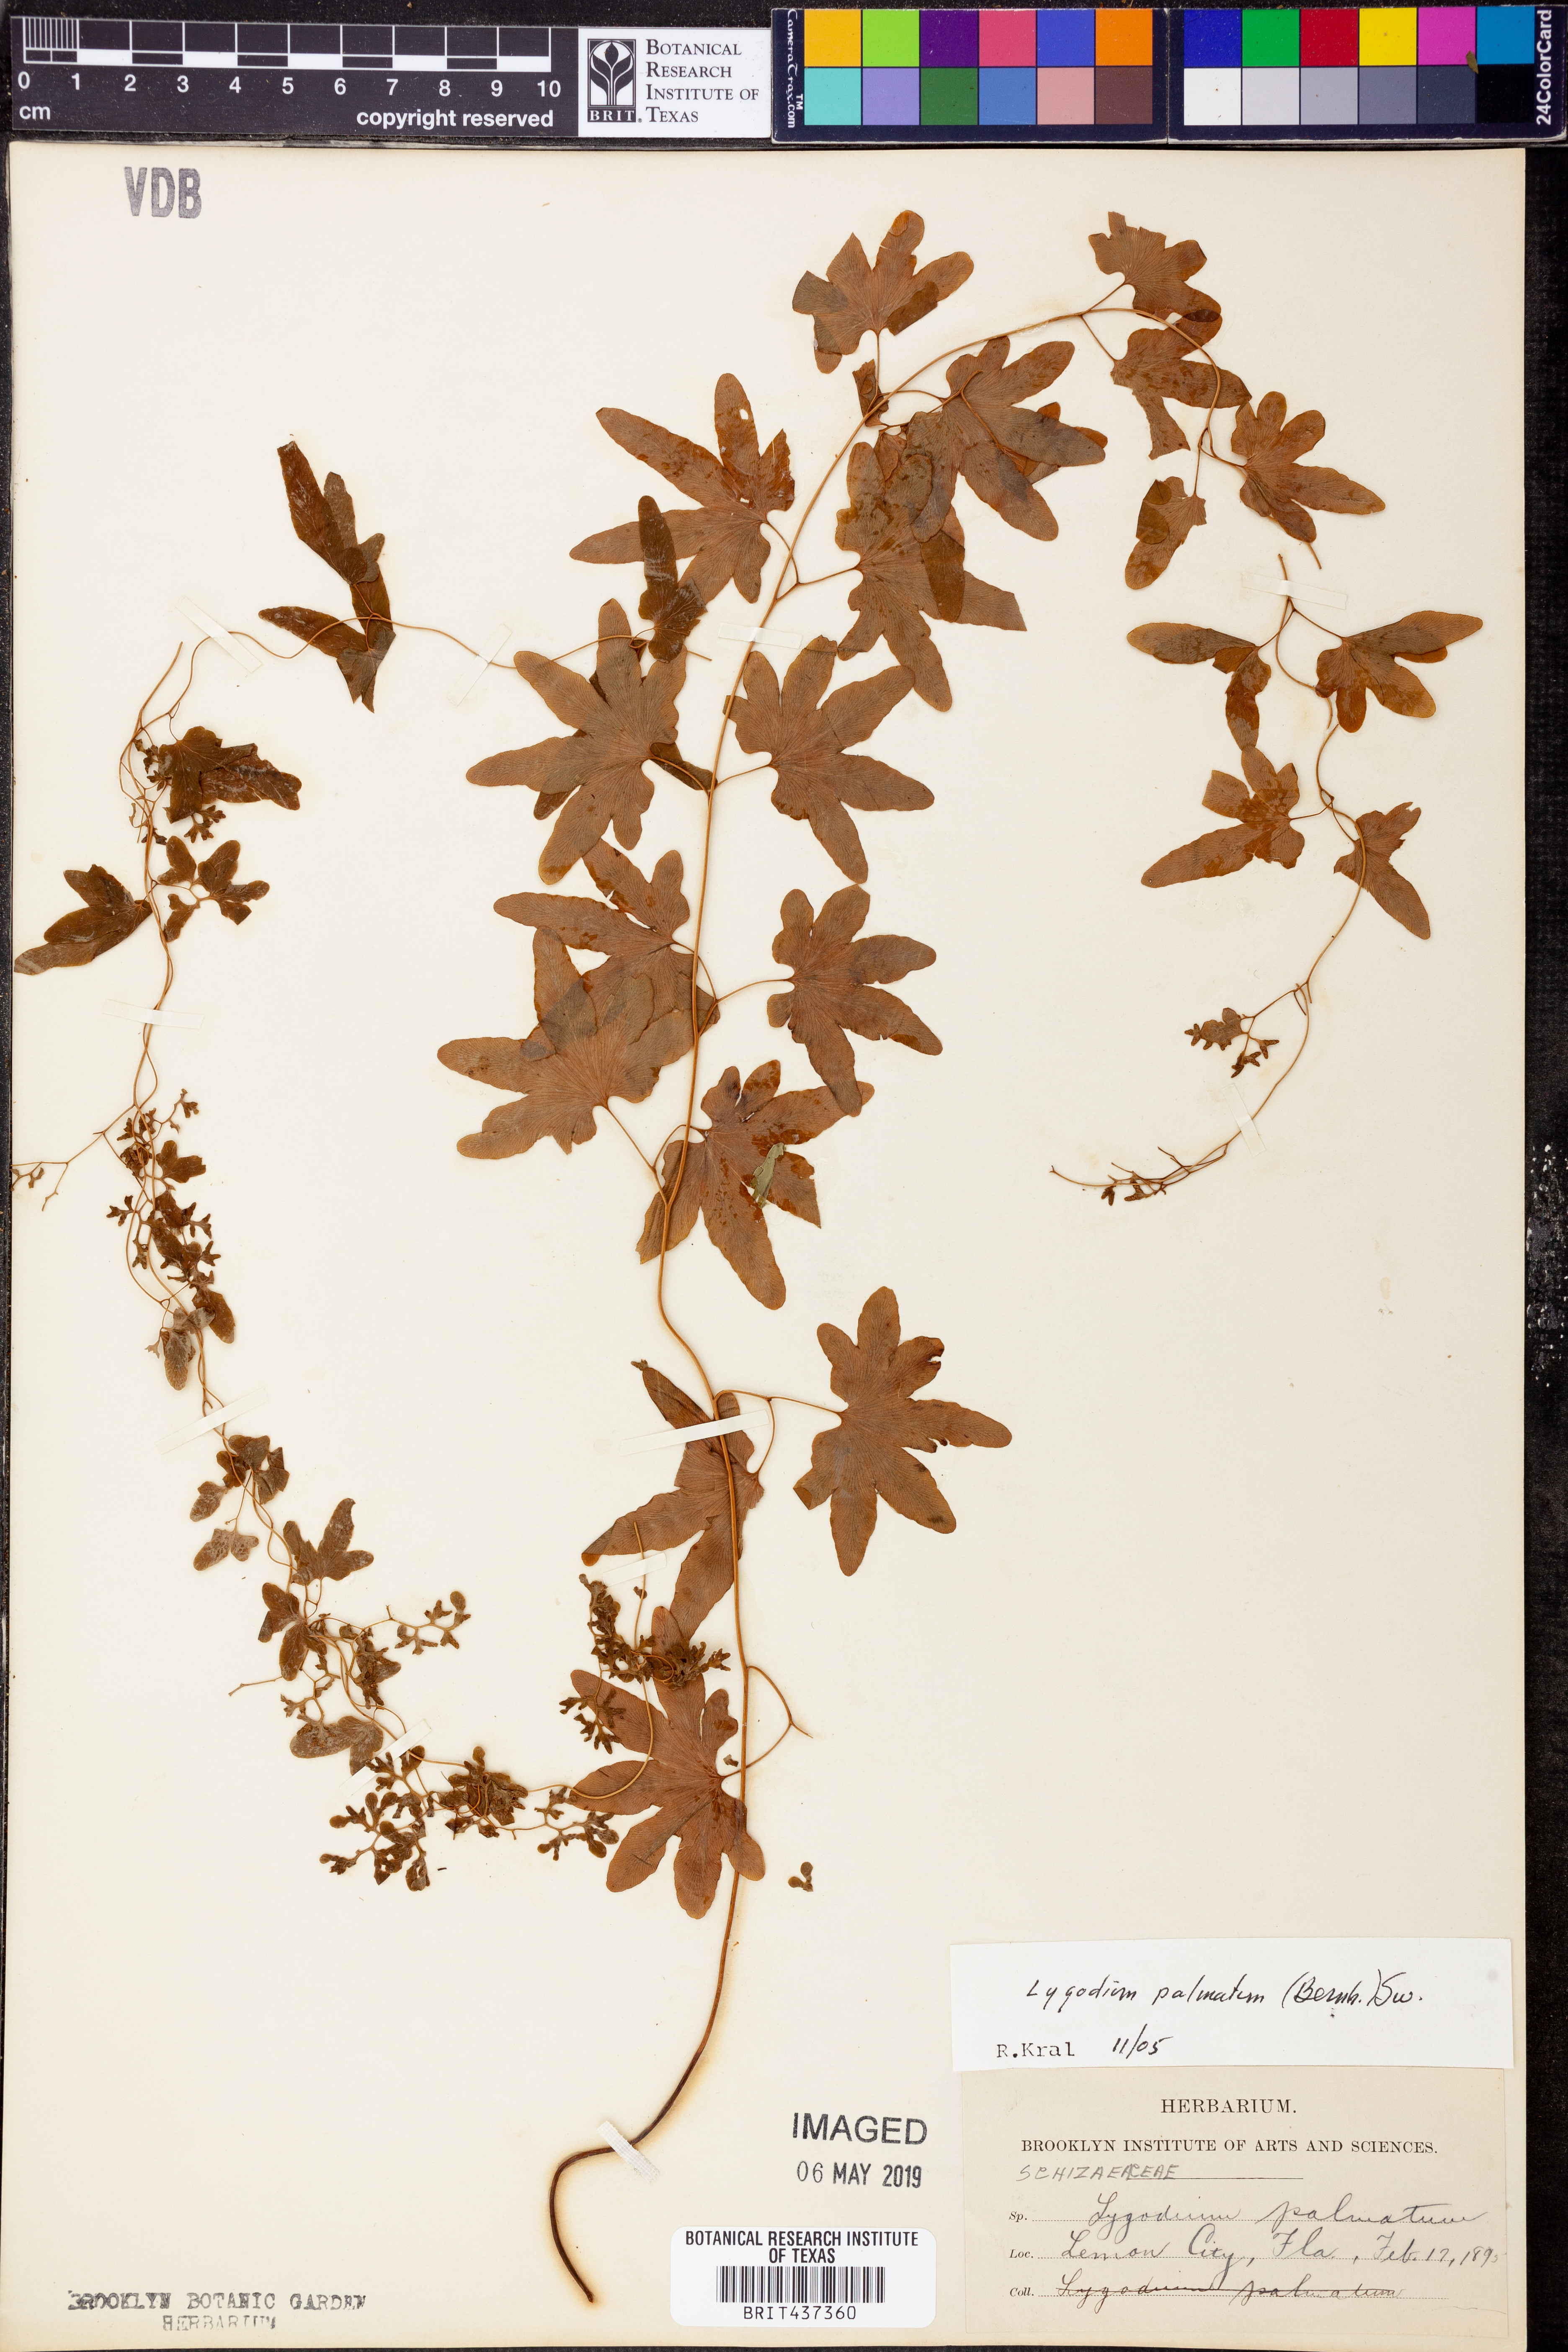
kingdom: Plantae
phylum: Tracheophyta
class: Polypodiopsida
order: Schizaeales
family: Lygodiaceae
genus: Lygodium
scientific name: Lygodium palmatum
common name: American climbing fern
